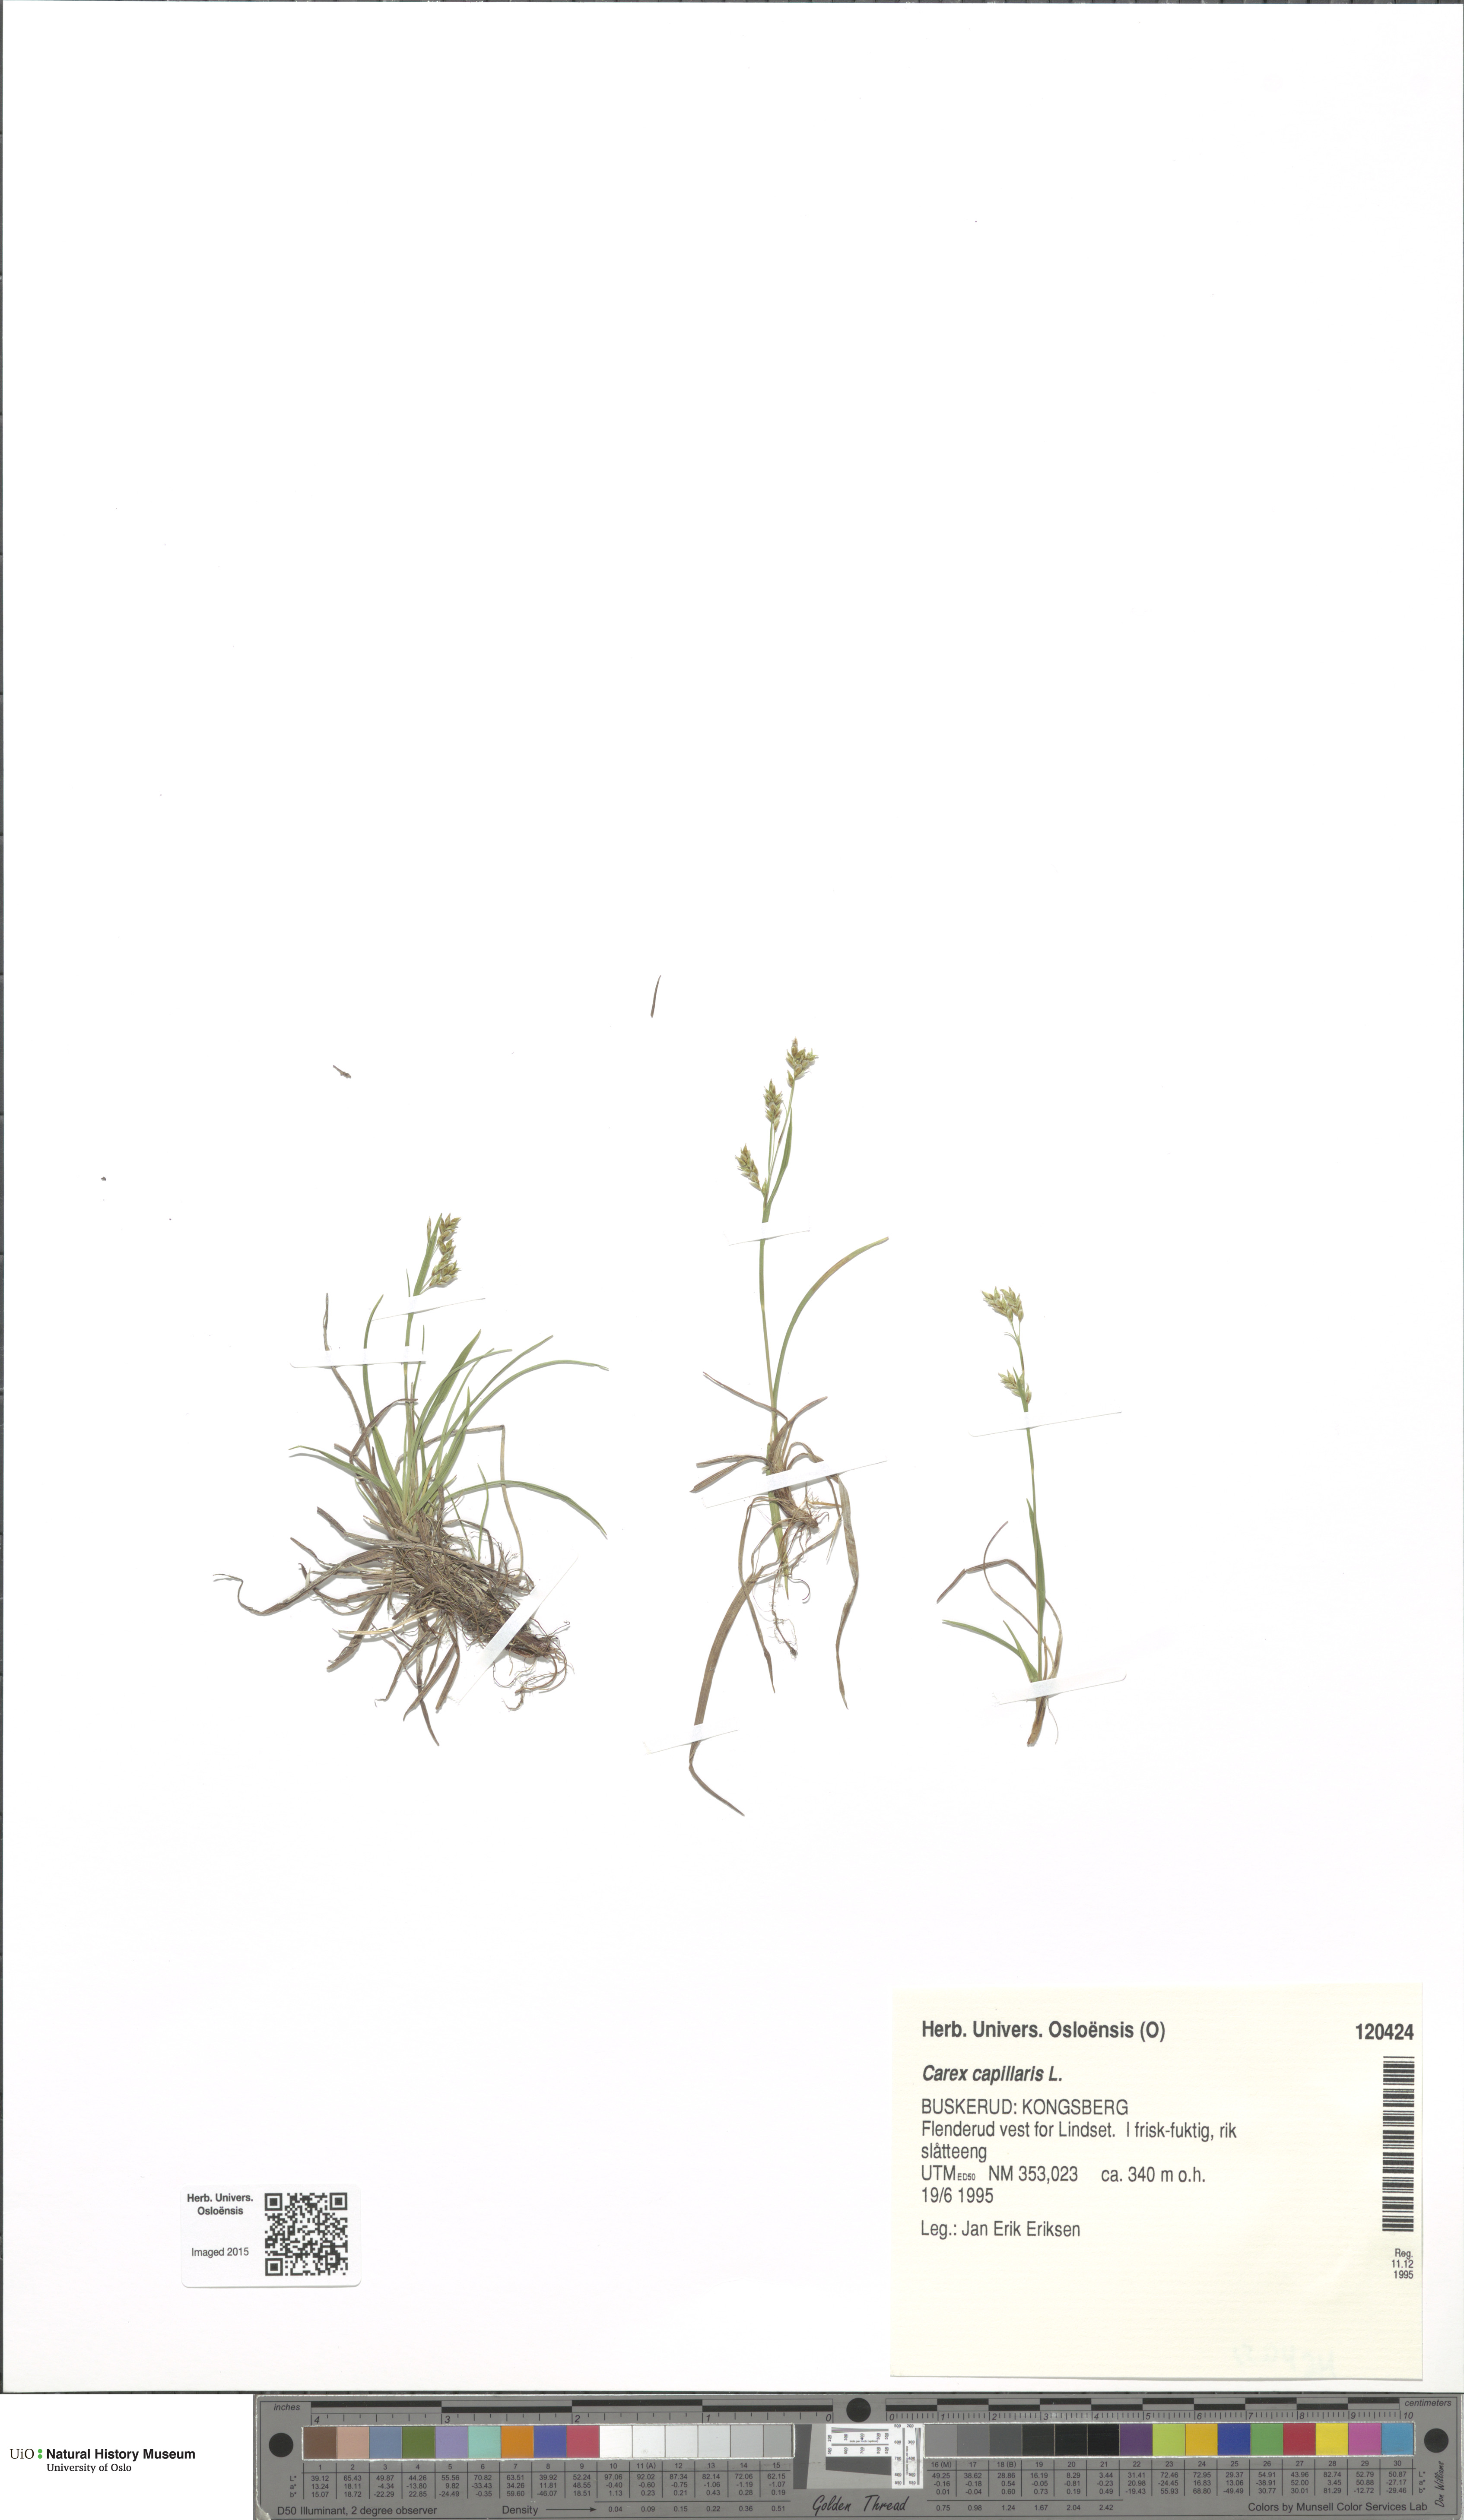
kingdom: Plantae
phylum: Tracheophyta
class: Liliopsida
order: Poales
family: Cyperaceae
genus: Carex
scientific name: Carex capillaris
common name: Hair sedge
